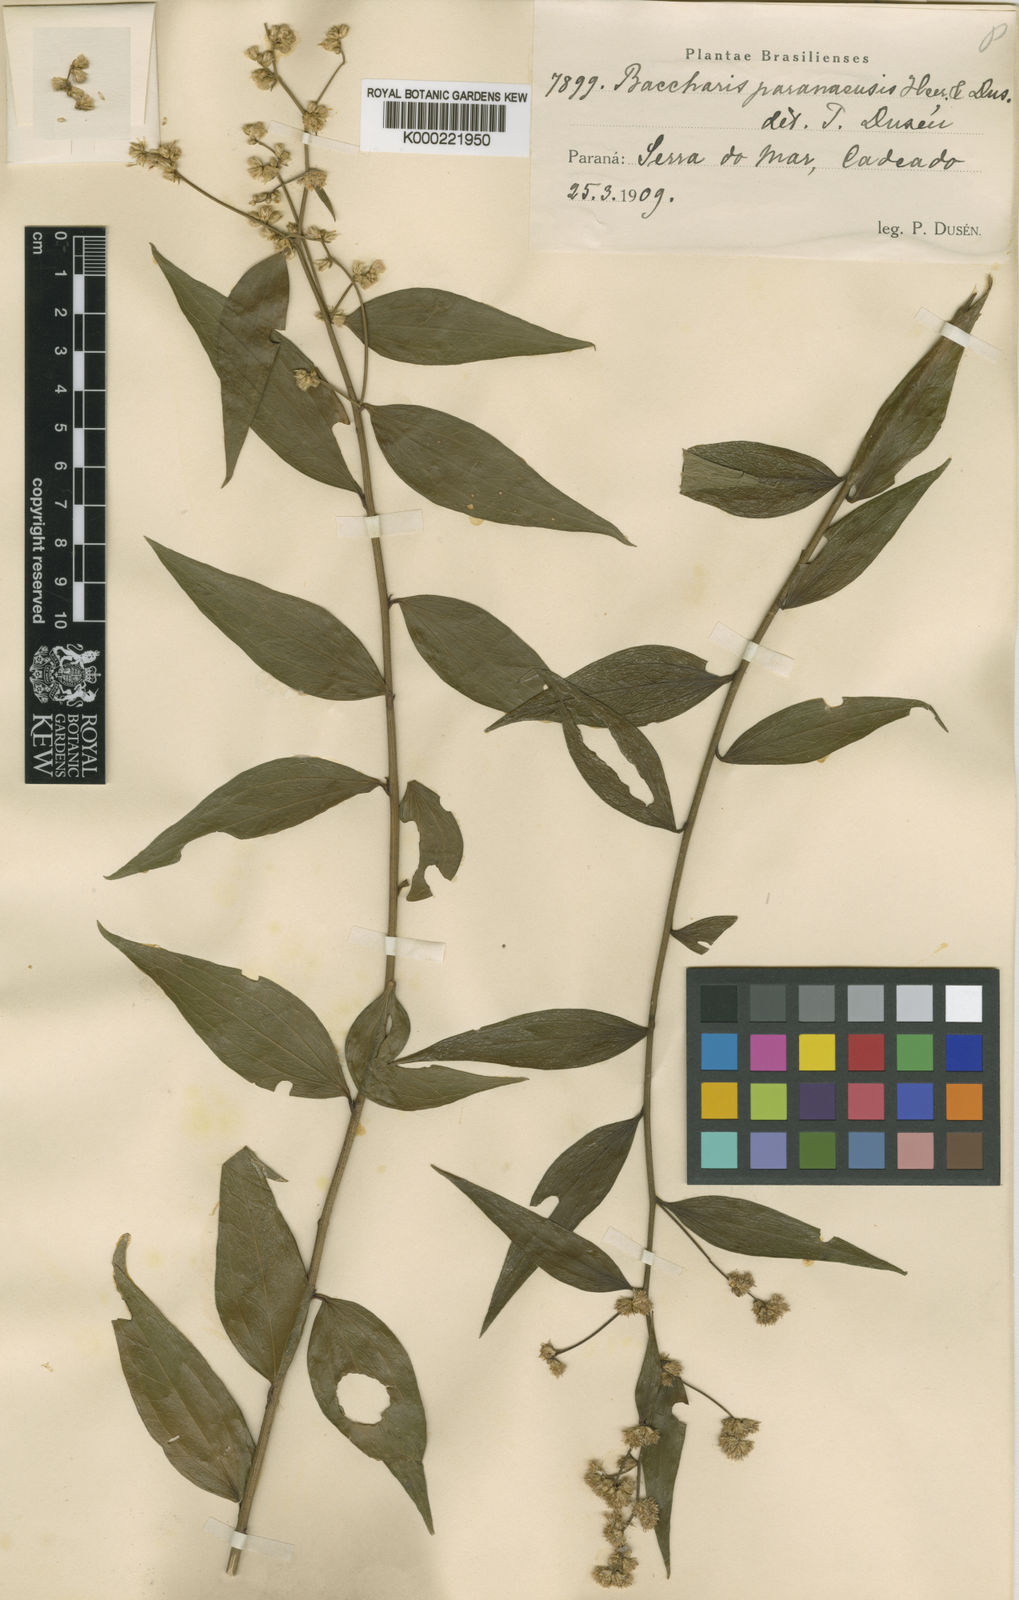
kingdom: Plantae
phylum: Tracheophyta
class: Magnoliopsida
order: Asterales
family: Asteraceae
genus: Baccharis
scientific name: Baccharis
